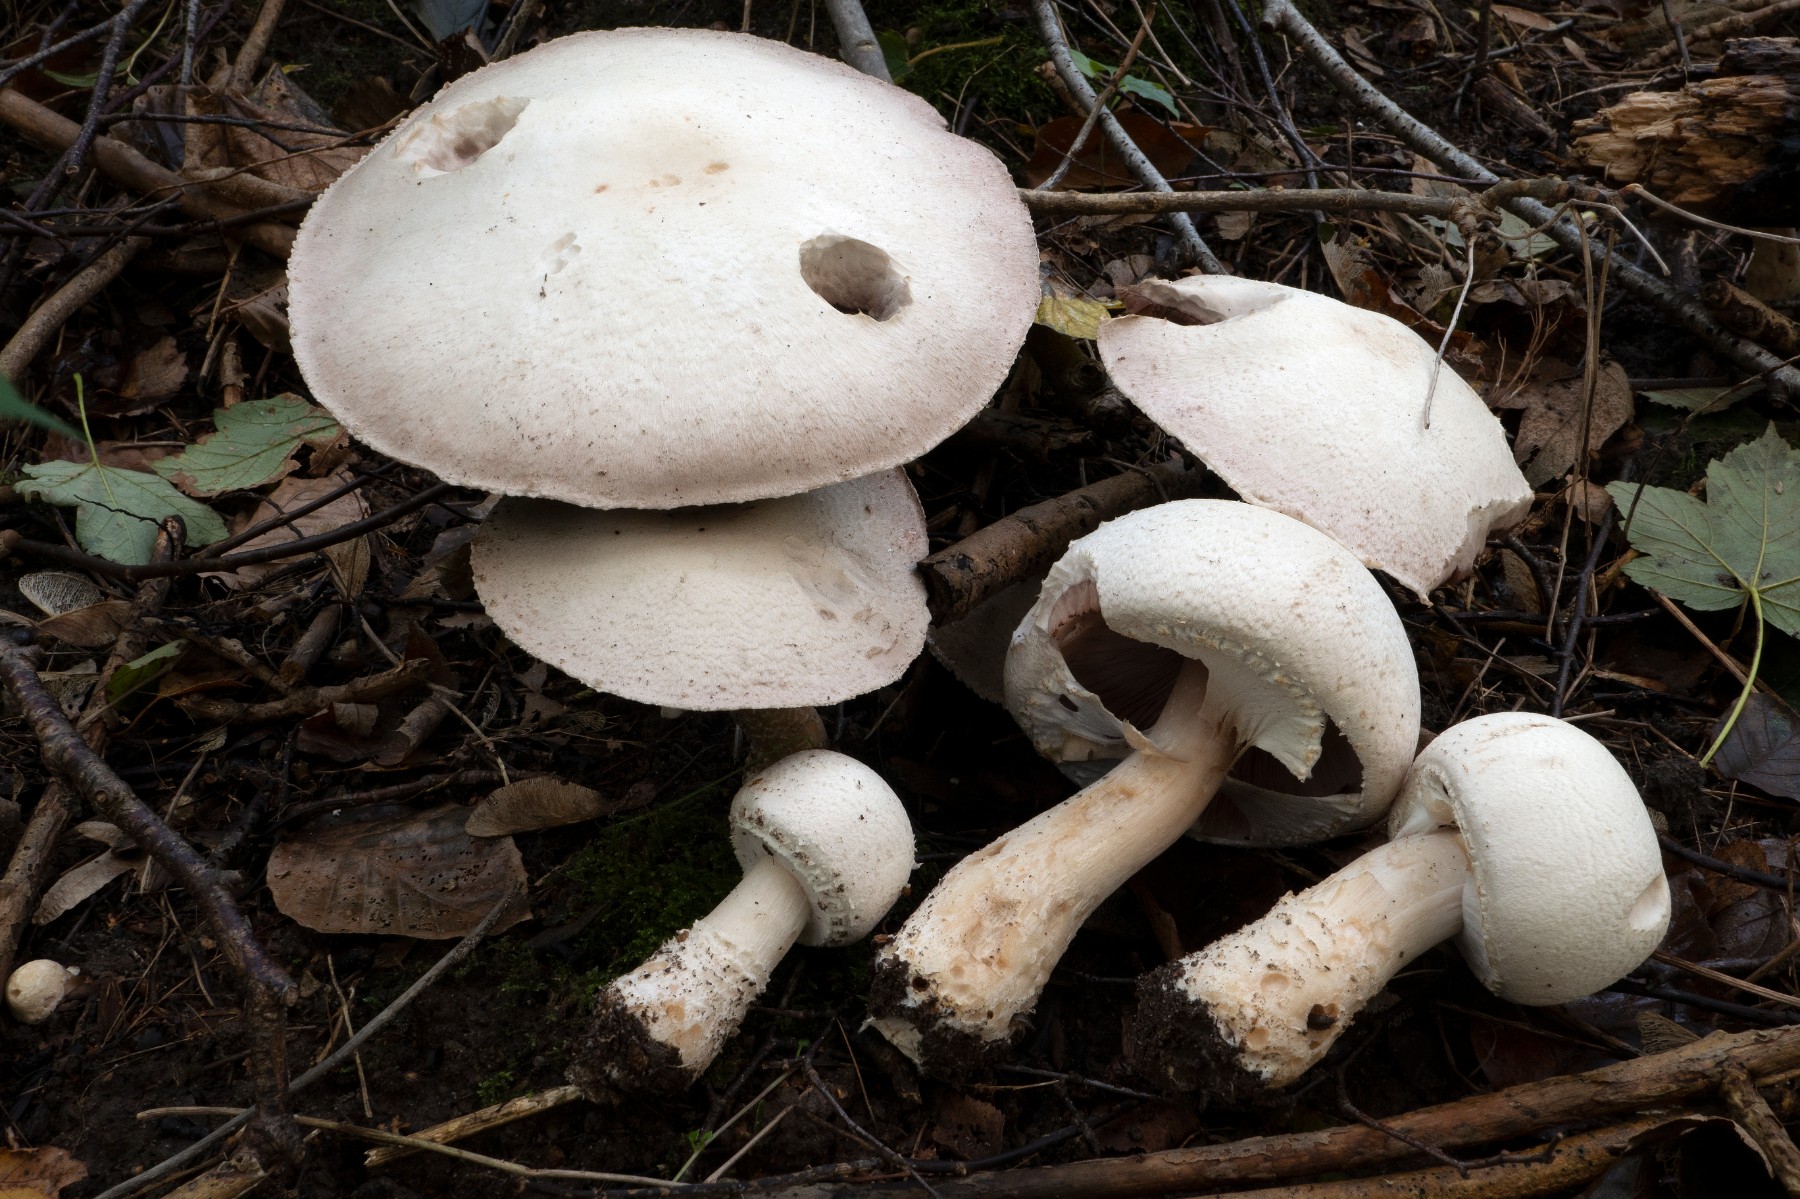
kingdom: Fungi
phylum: Basidiomycota
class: Agaricomycetes
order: Agaricales
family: Agaricaceae
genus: Agaricus
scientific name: Agaricus crocodilinus
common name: landsby-champignon
